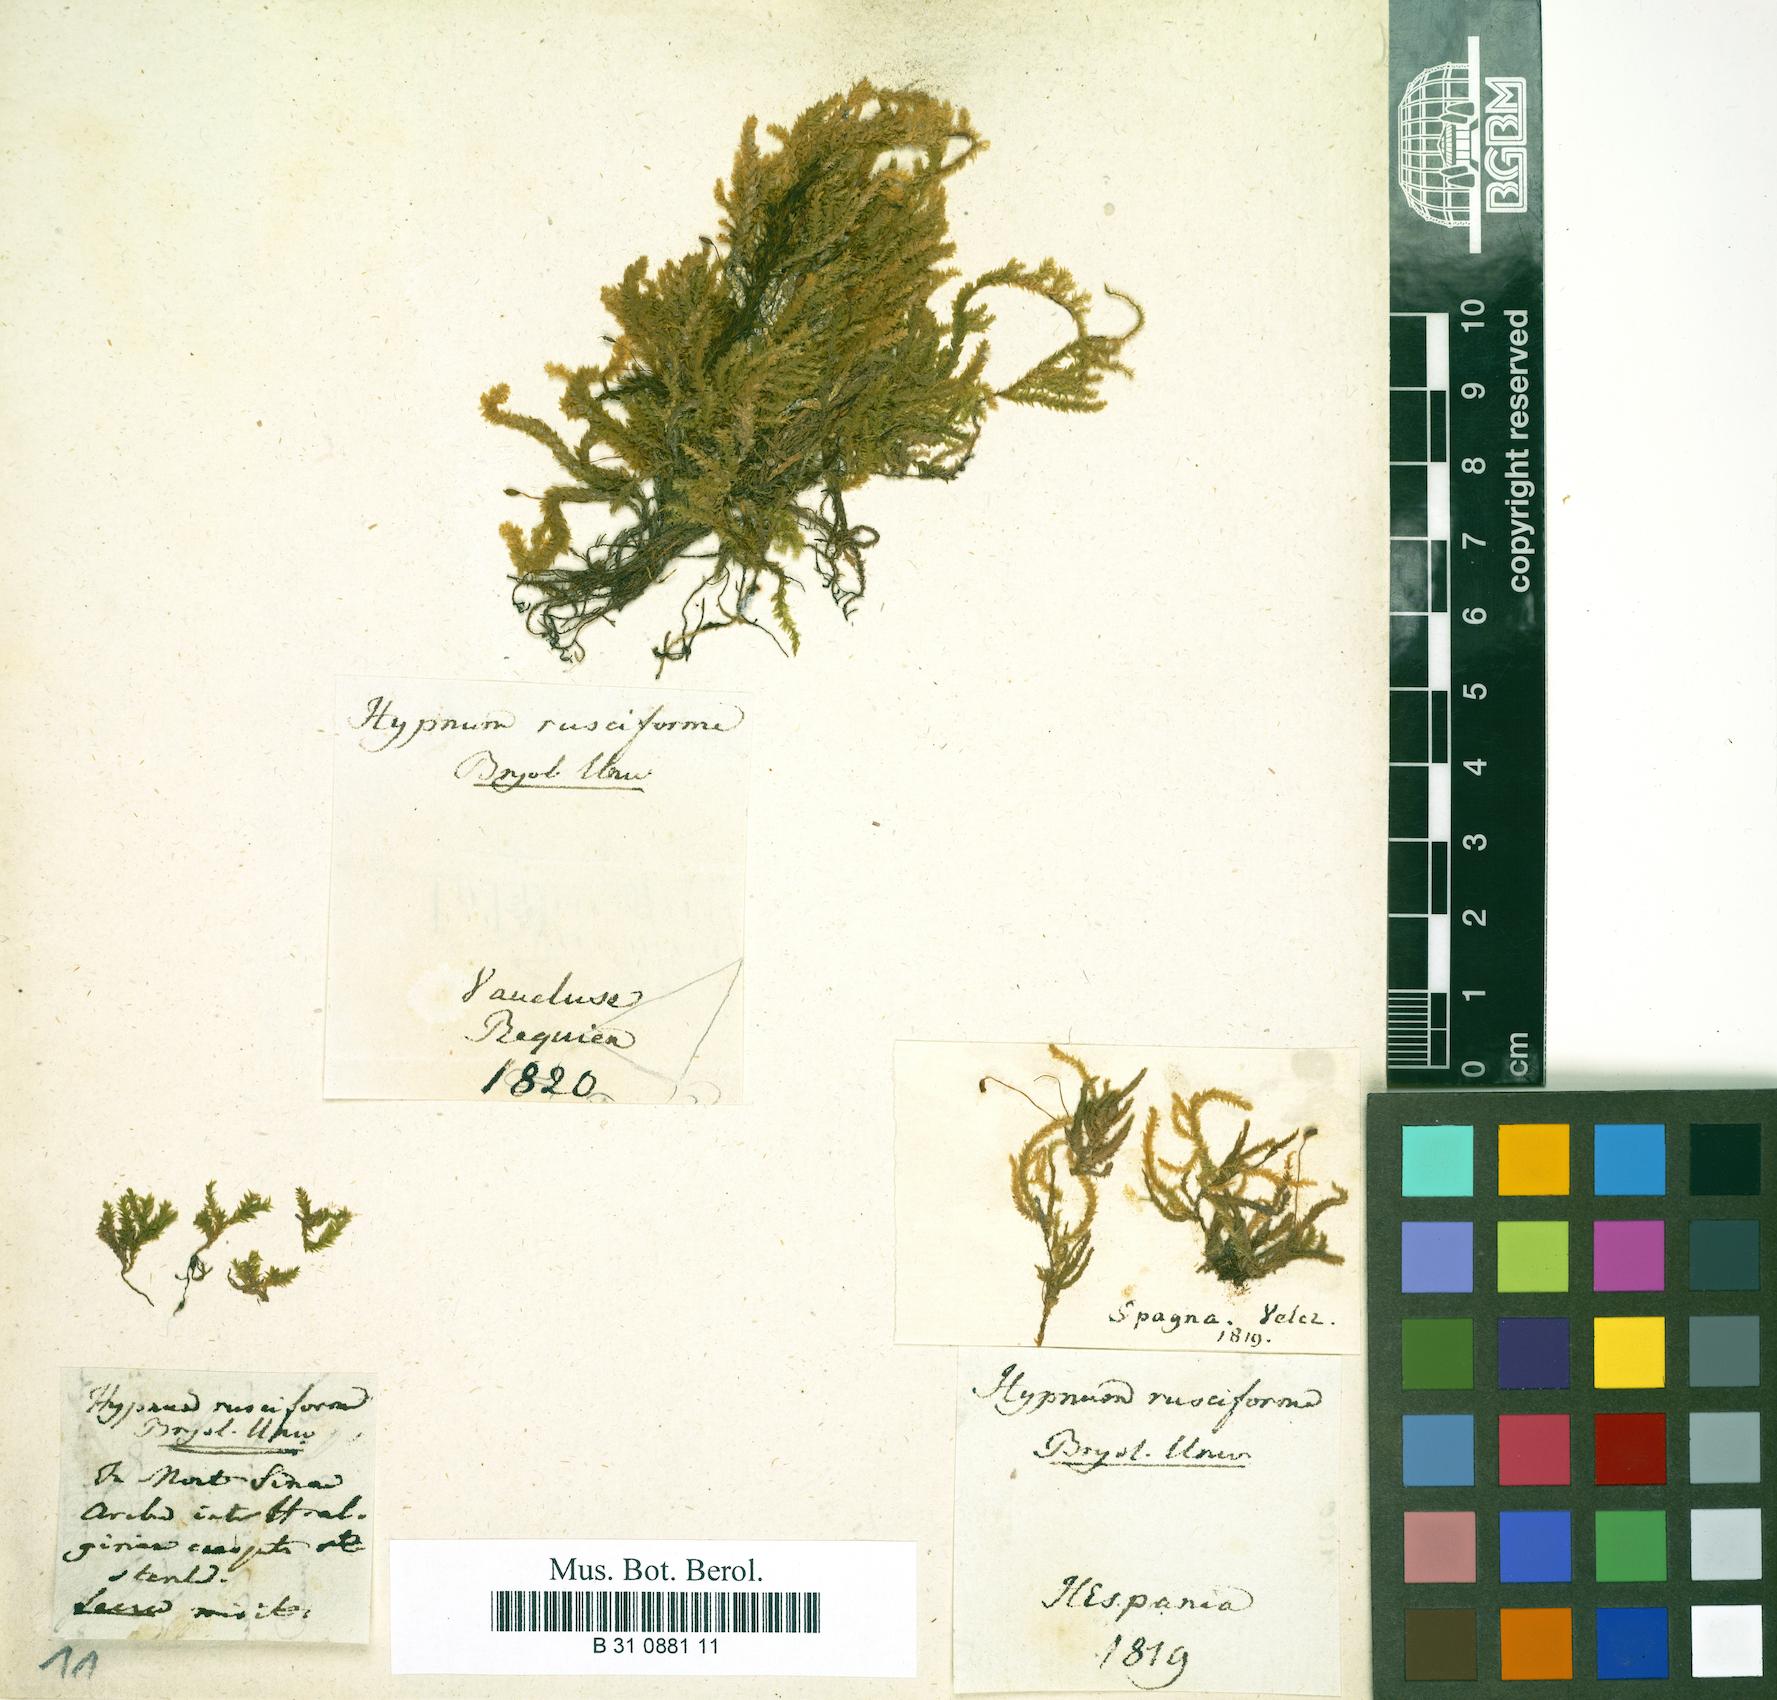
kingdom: Plantae
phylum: Bryophyta
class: Bryopsida
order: Hypnales
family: Brachytheciaceae
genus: Rhynchostegium
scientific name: Rhynchostegium riparioides
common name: Platyhypnidium moss
